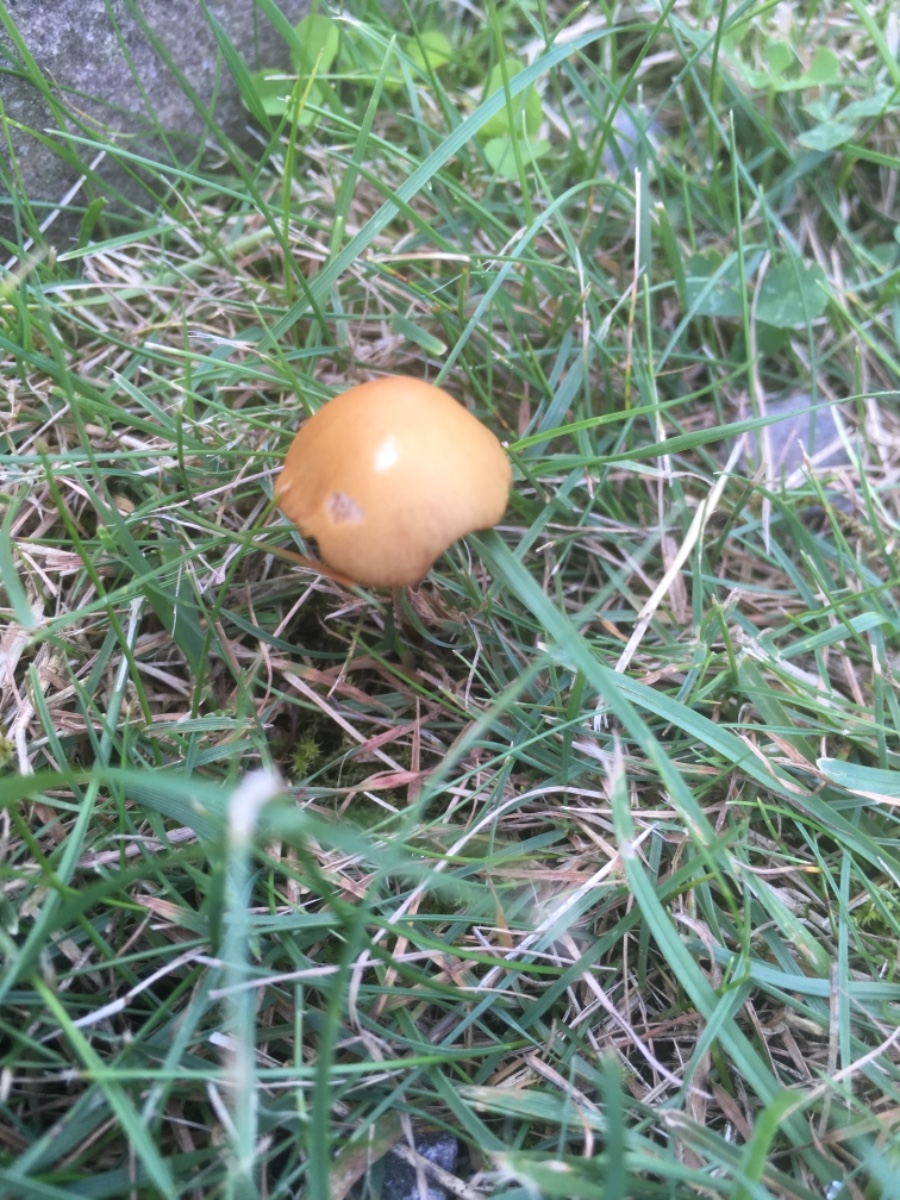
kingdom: Fungi
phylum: Basidiomycota
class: Agaricomycetes
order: Agaricales
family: Bolbitiaceae
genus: Conocybe
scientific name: Conocybe
